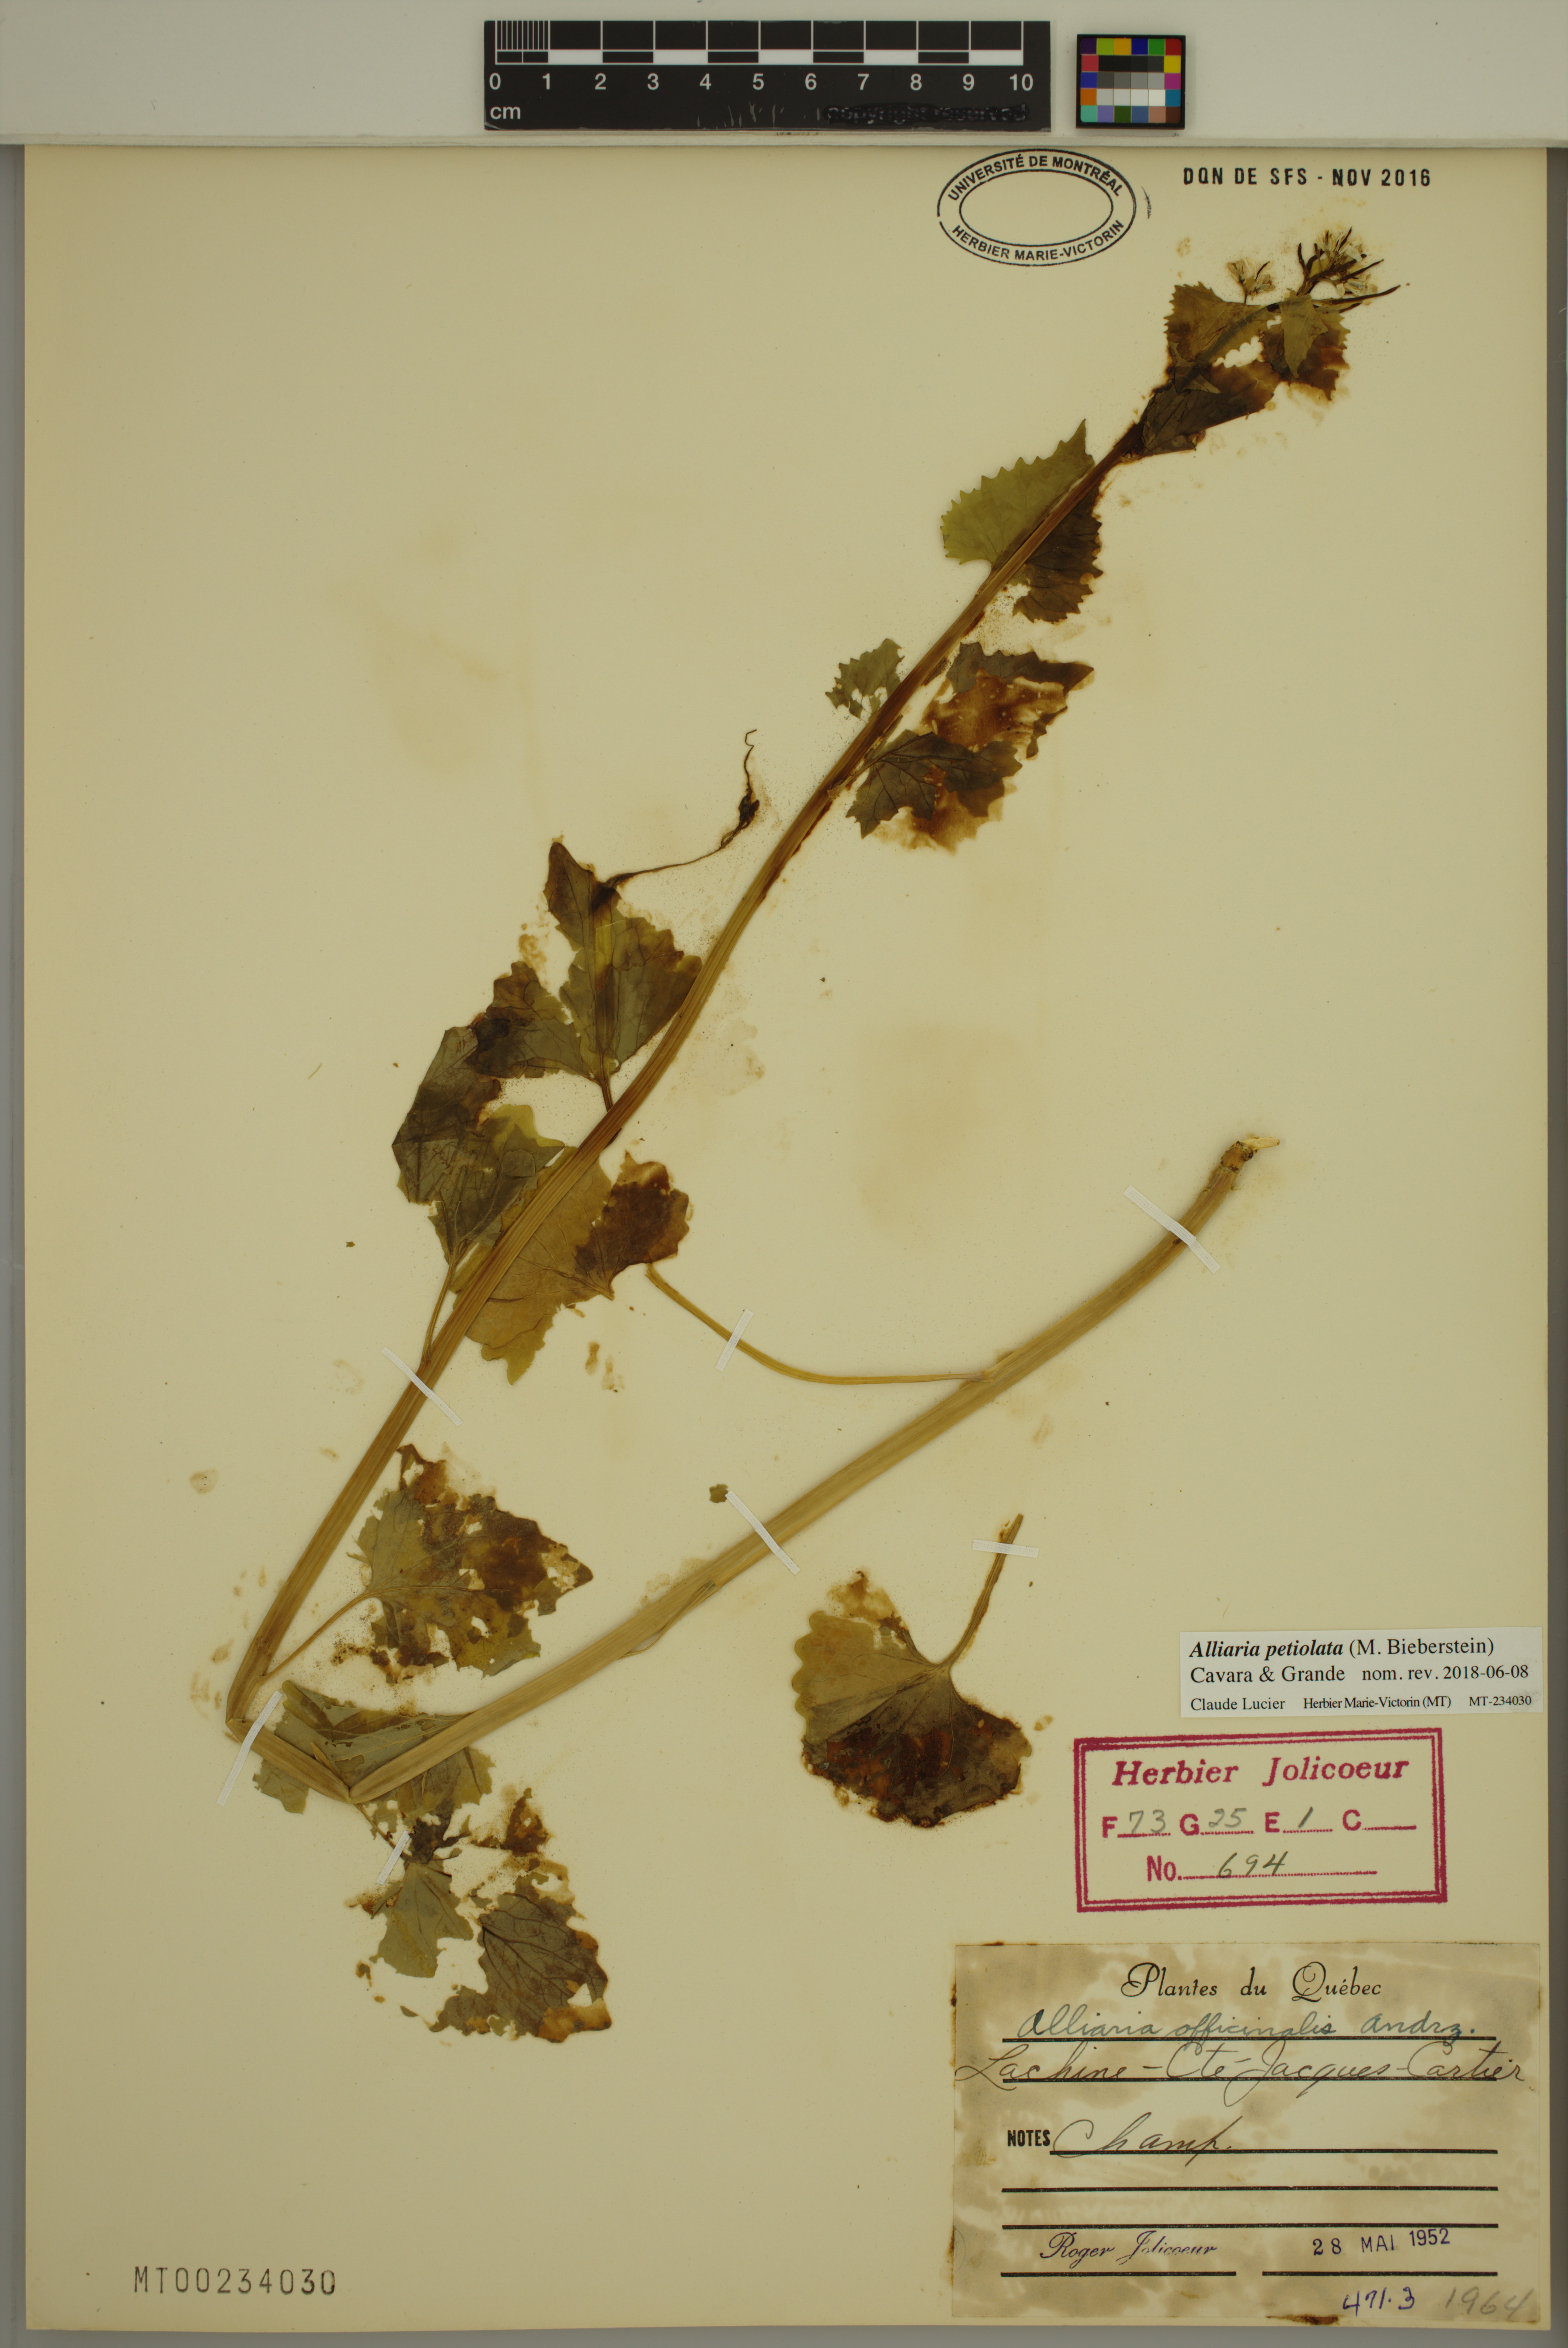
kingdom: Plantae
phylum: Tracheophyta
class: Magnoliopsida
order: Brassicales
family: Brassicaceae
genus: Alliaria
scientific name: Alliaria petiolata
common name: Garlic mustard
